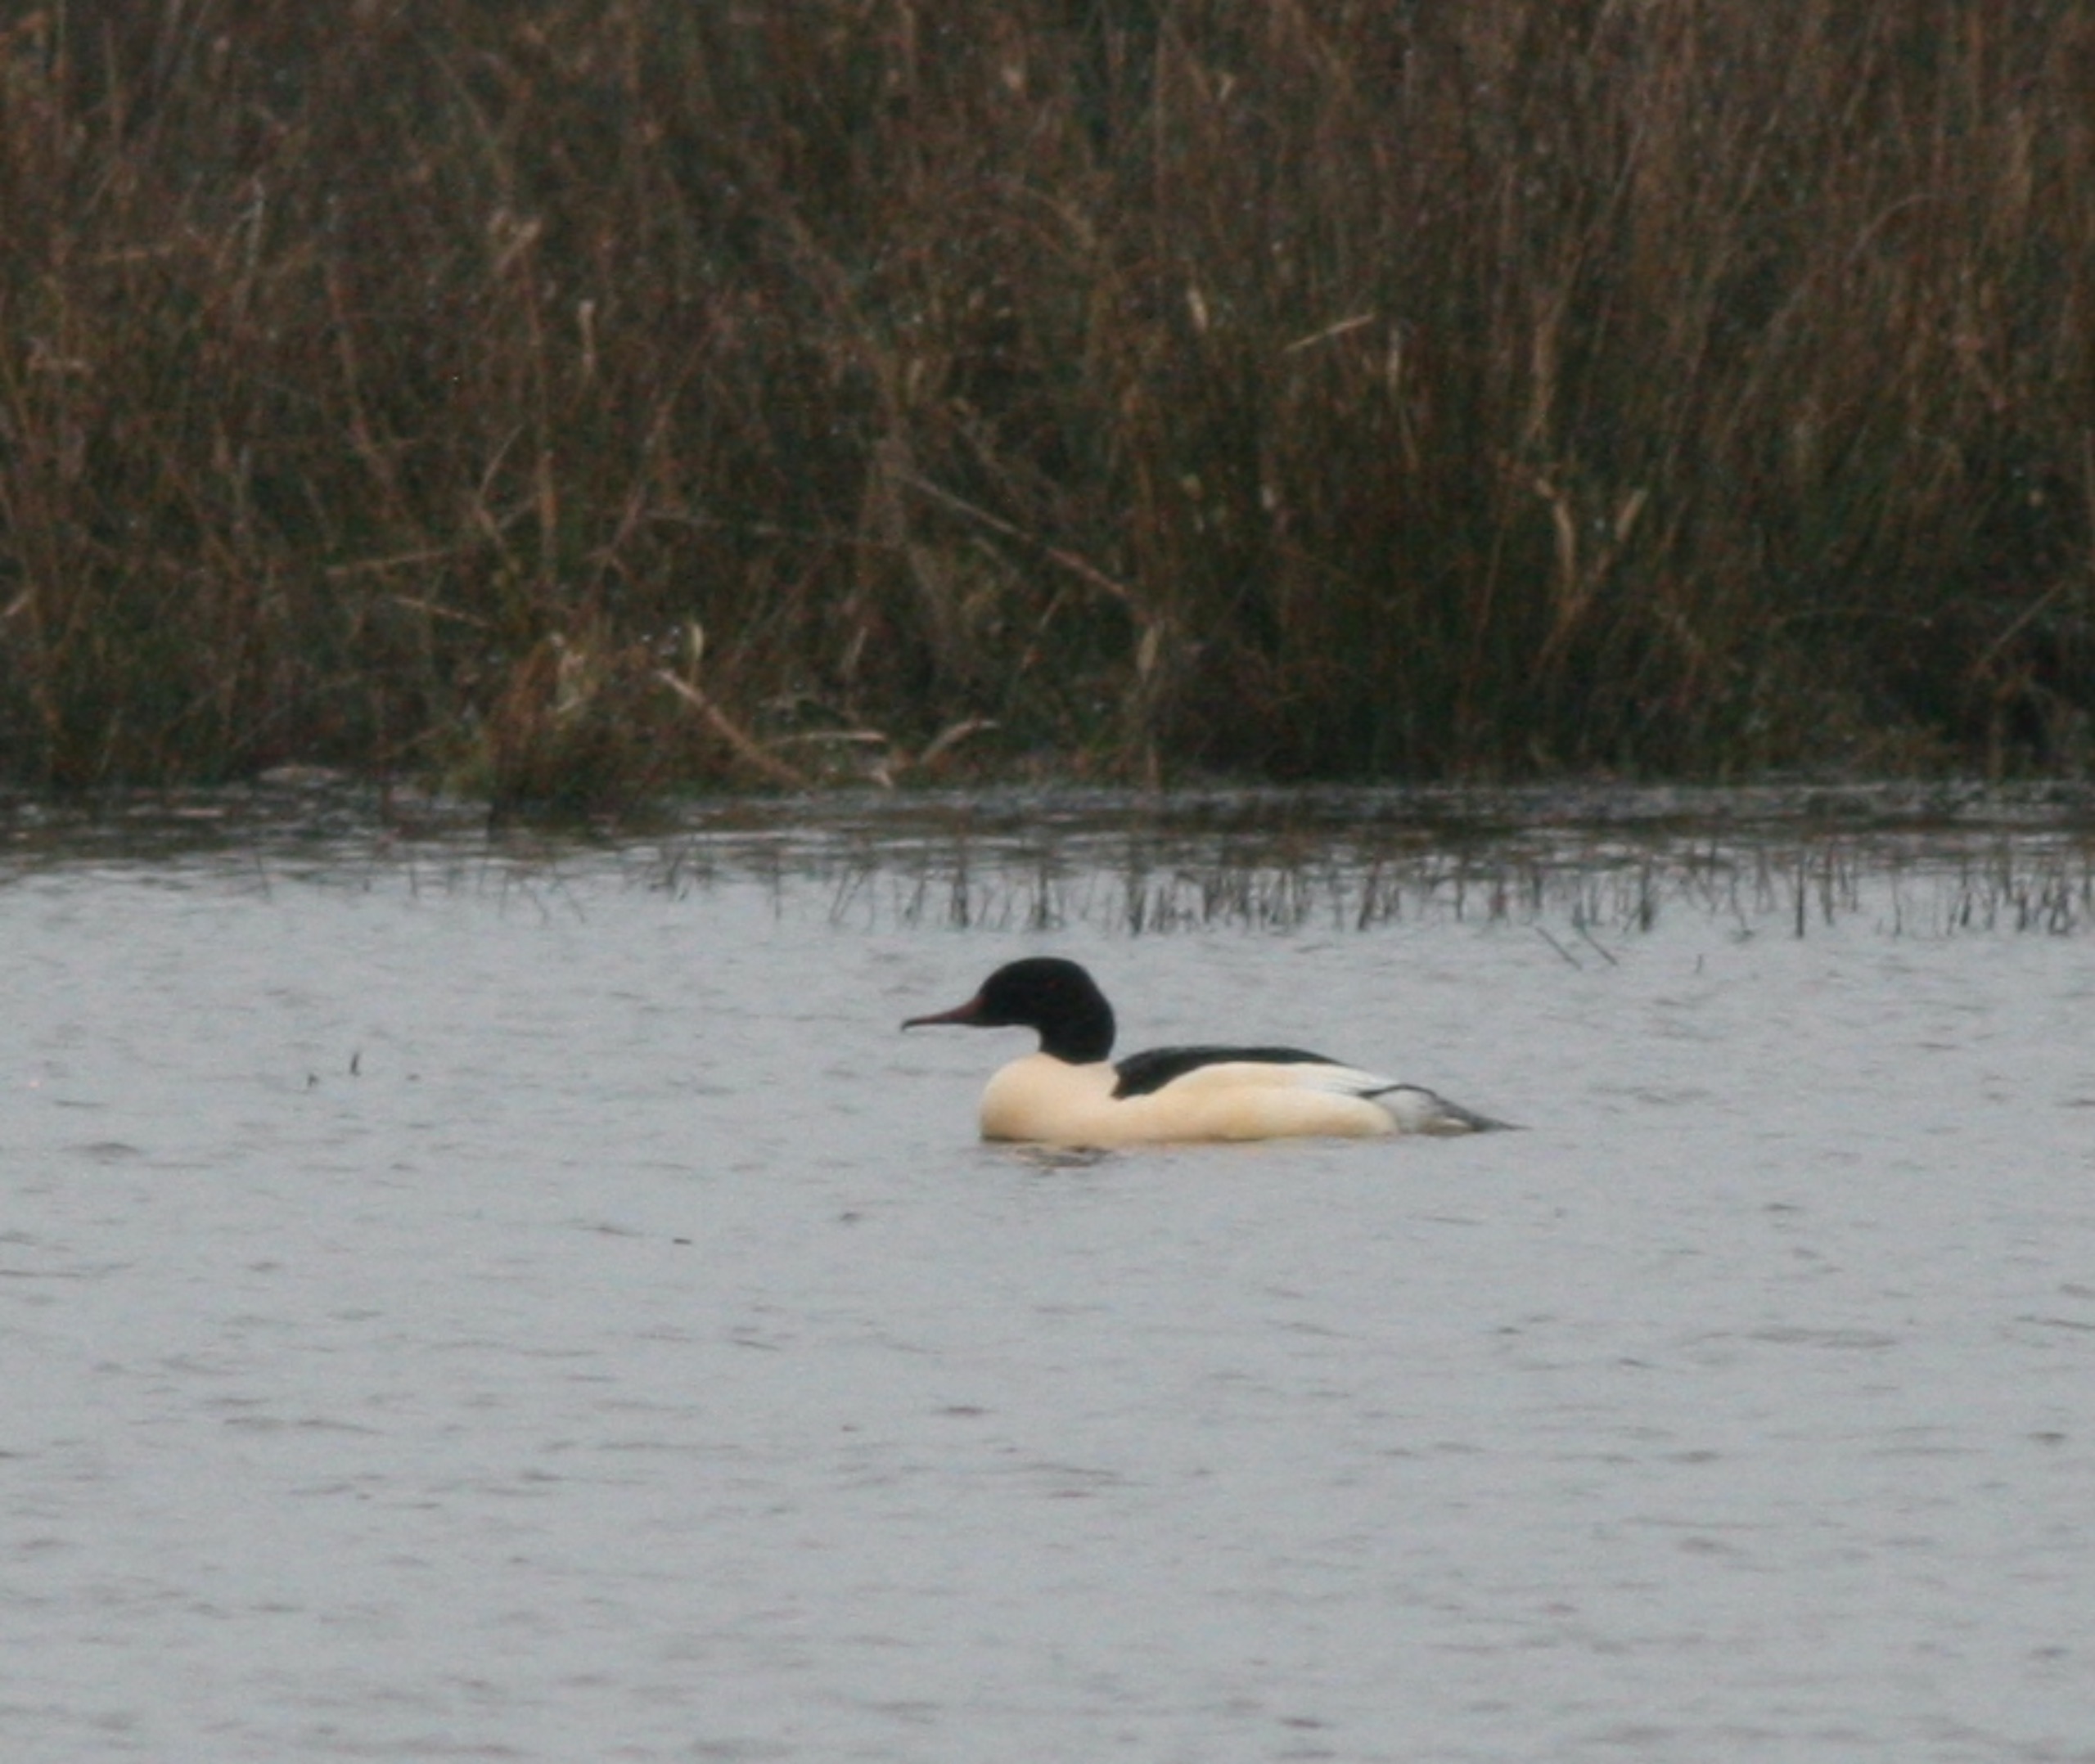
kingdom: Animalia
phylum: Chordata
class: Aves
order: Anseriformes
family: Anatidae
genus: Mergus
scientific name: Mergus merganser
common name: Stor skallesluger
